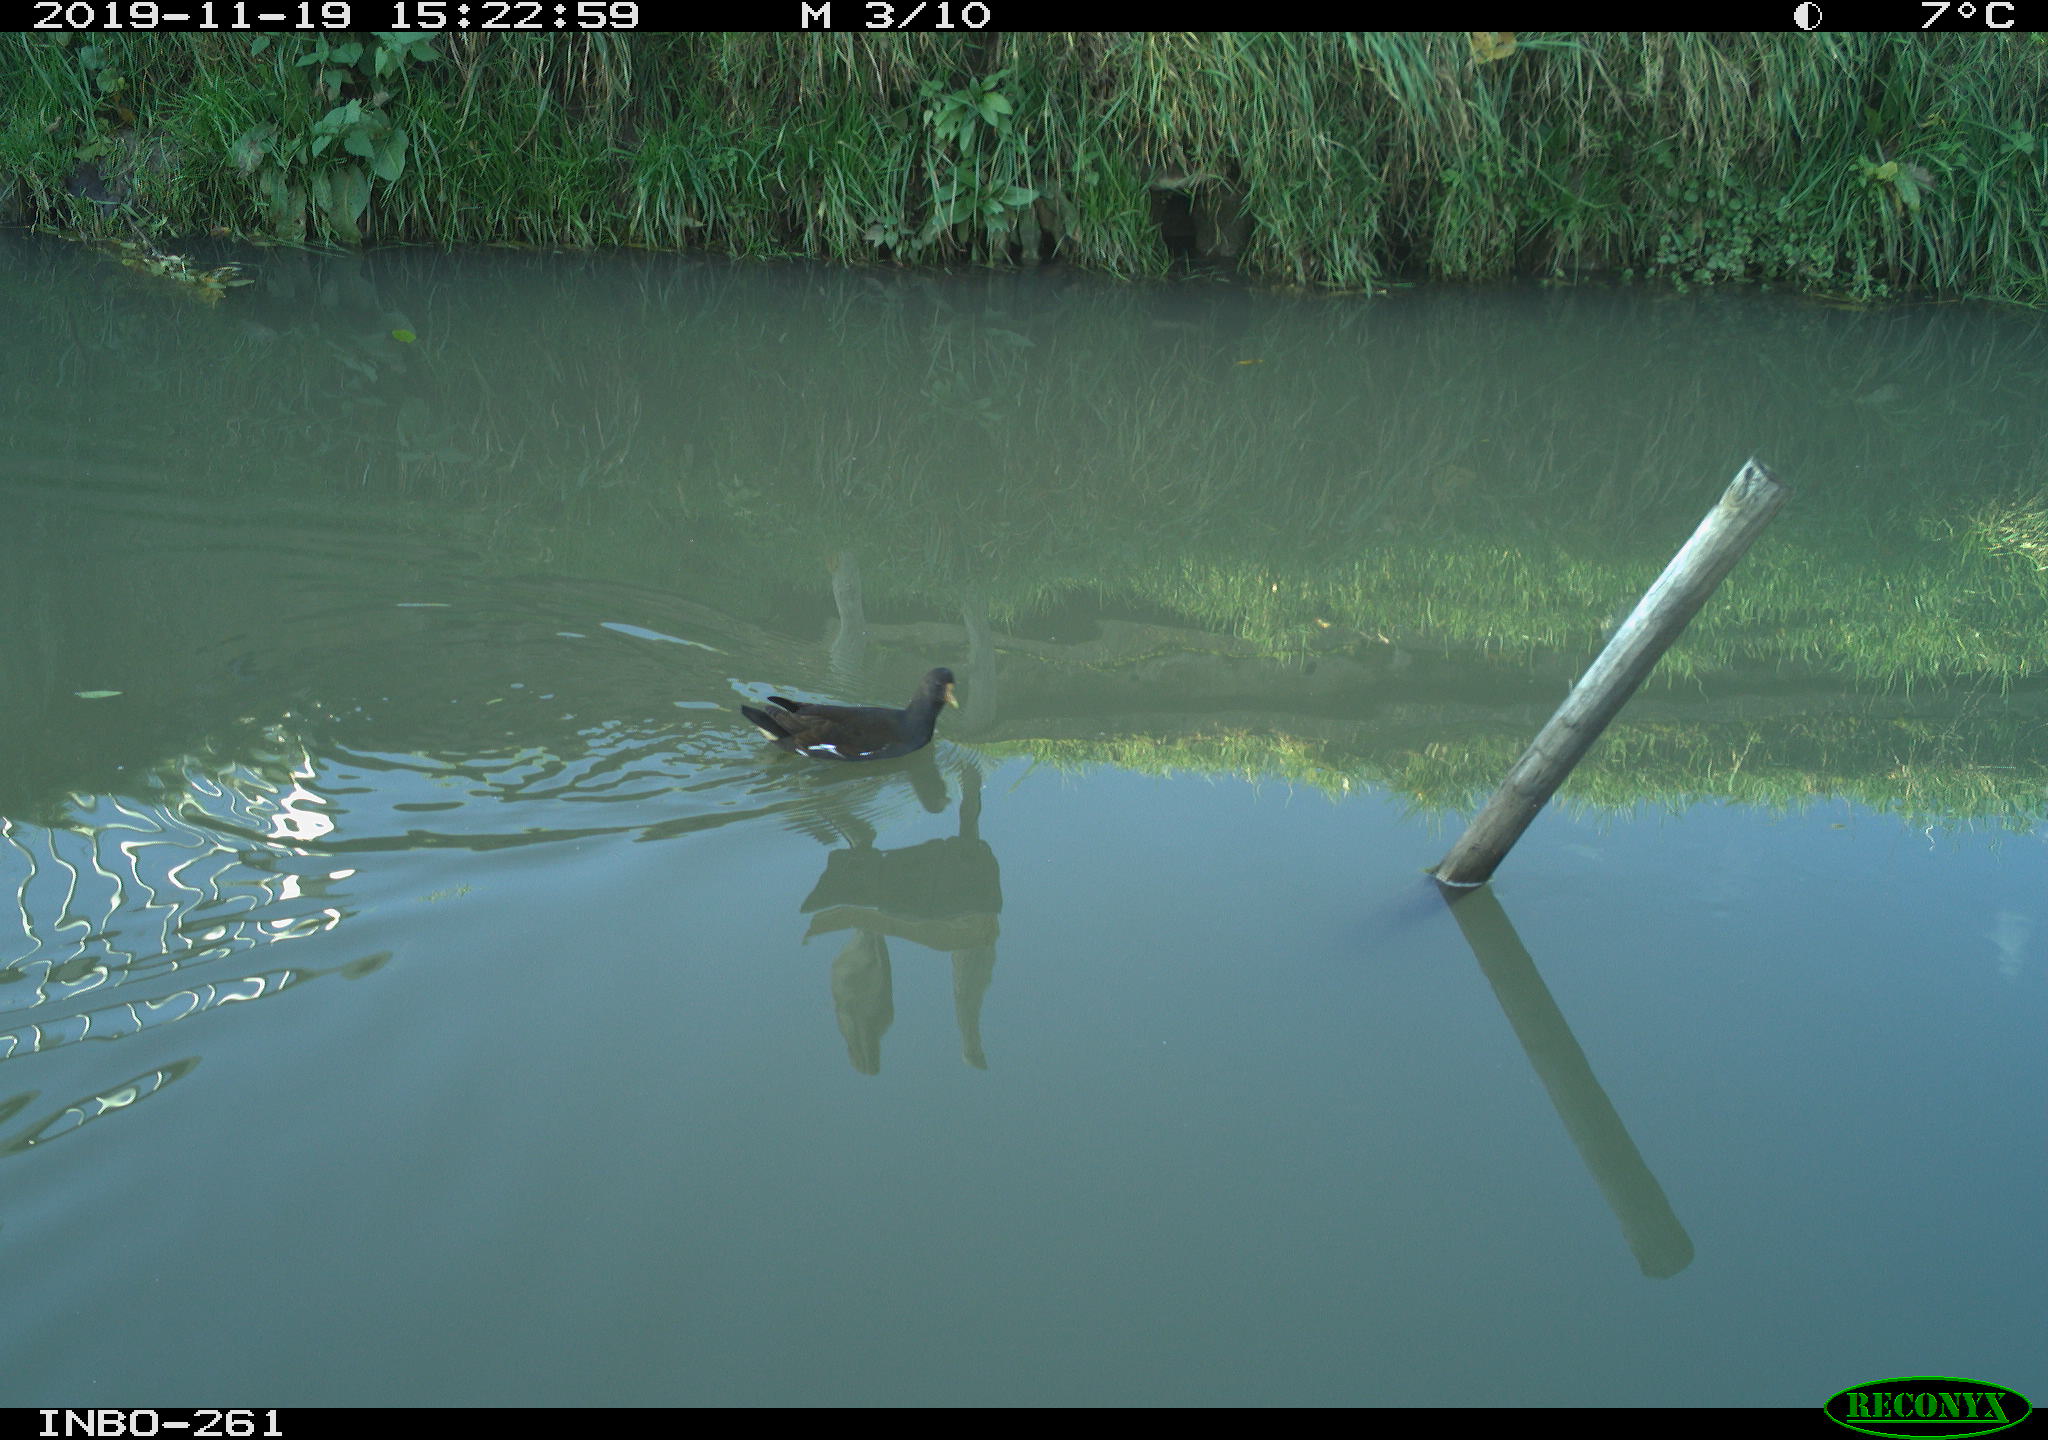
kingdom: Animalia
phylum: Chordata
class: Aves
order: Gruiformes
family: Rallidae
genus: Gallinula
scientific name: Gallinula chloropus
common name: Common moorhen
